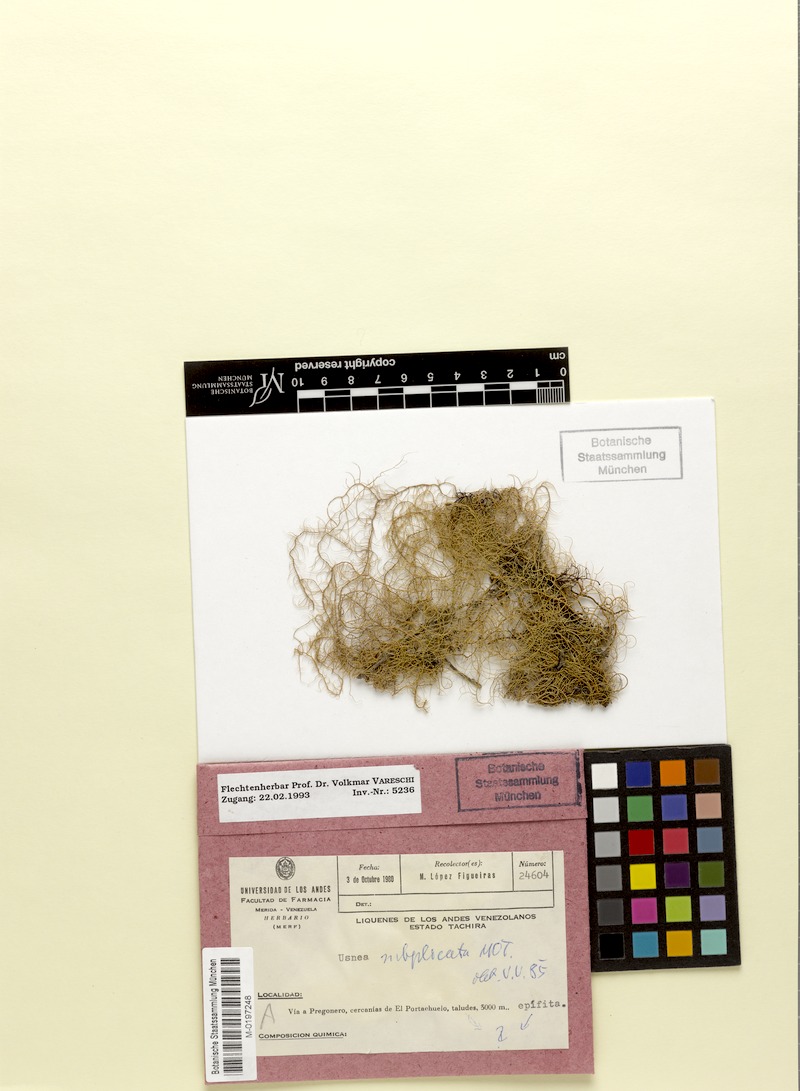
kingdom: Fungi
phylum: Ascomycota
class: Lecanoromycetes
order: Lecanorales
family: Parmeliaceae
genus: Usnea
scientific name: Usnea subgracilis
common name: Beard lichen
